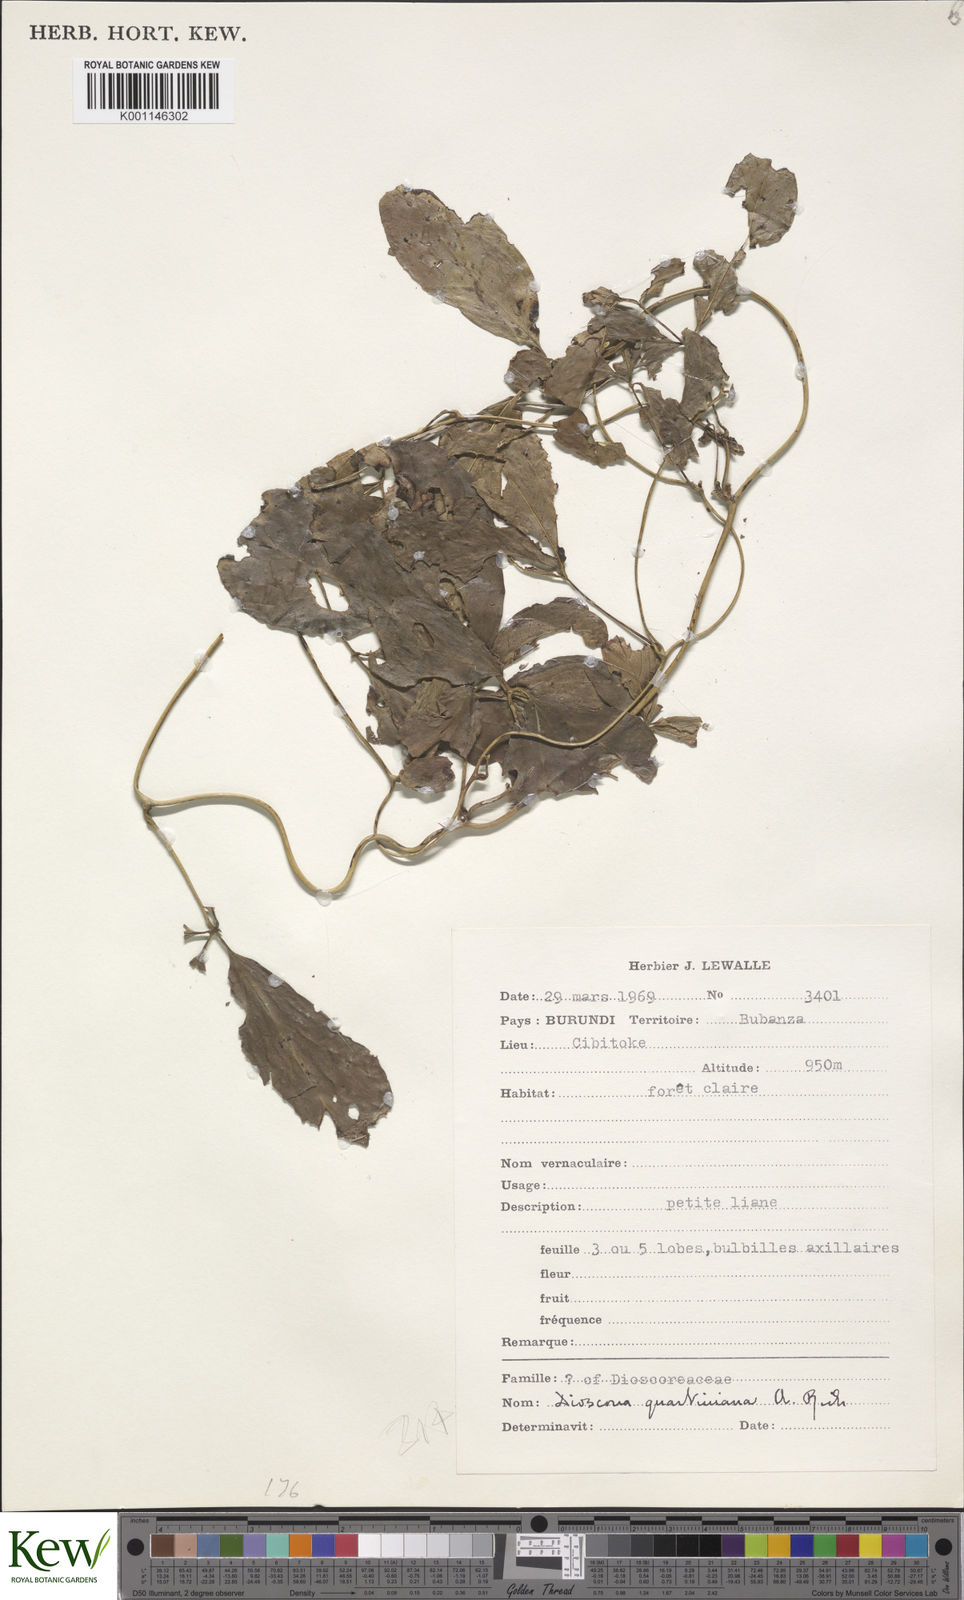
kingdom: Plantae
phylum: Tracheophyta
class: Liliopsida
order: Dioscoreales
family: Dioscoreaceae
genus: Dioscorea
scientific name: Dioscorea quartiniana
